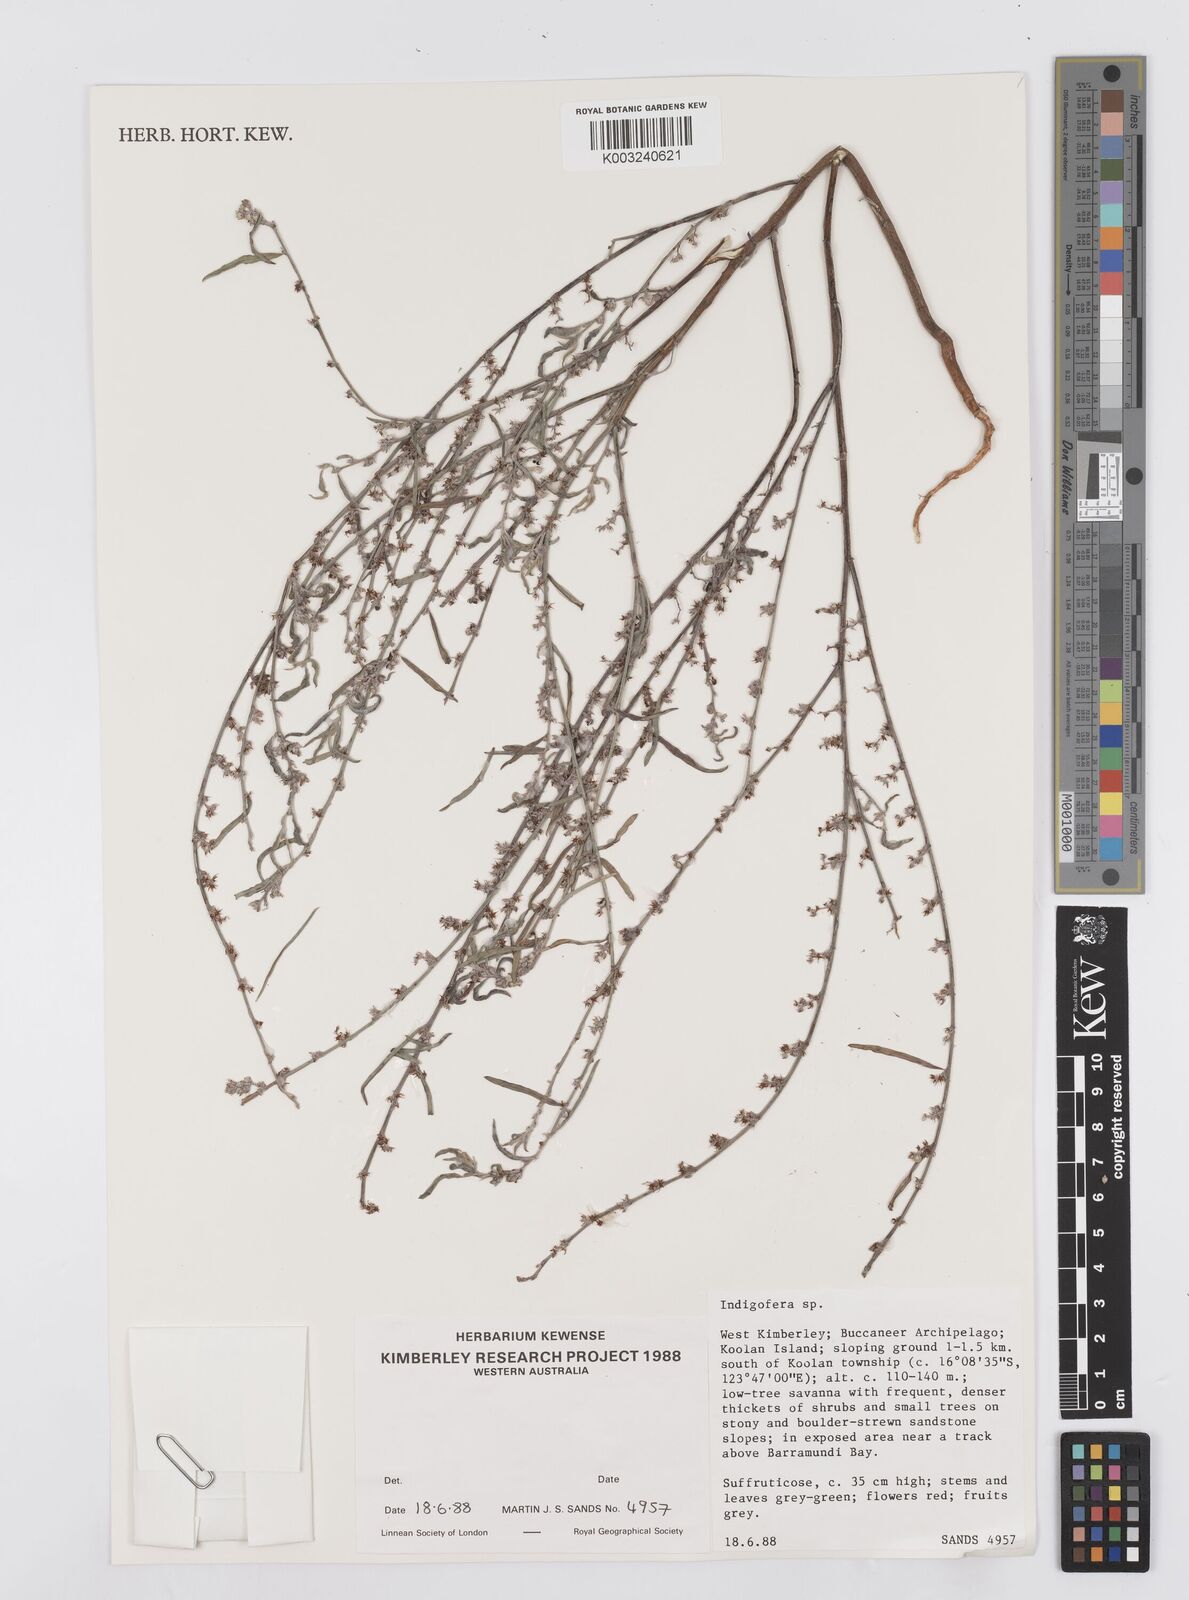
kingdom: Plantae
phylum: Tracheophyta
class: Magnoliopsida
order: Fabales
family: Fabaceae
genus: Indigofera
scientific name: Indigofera linifolia
